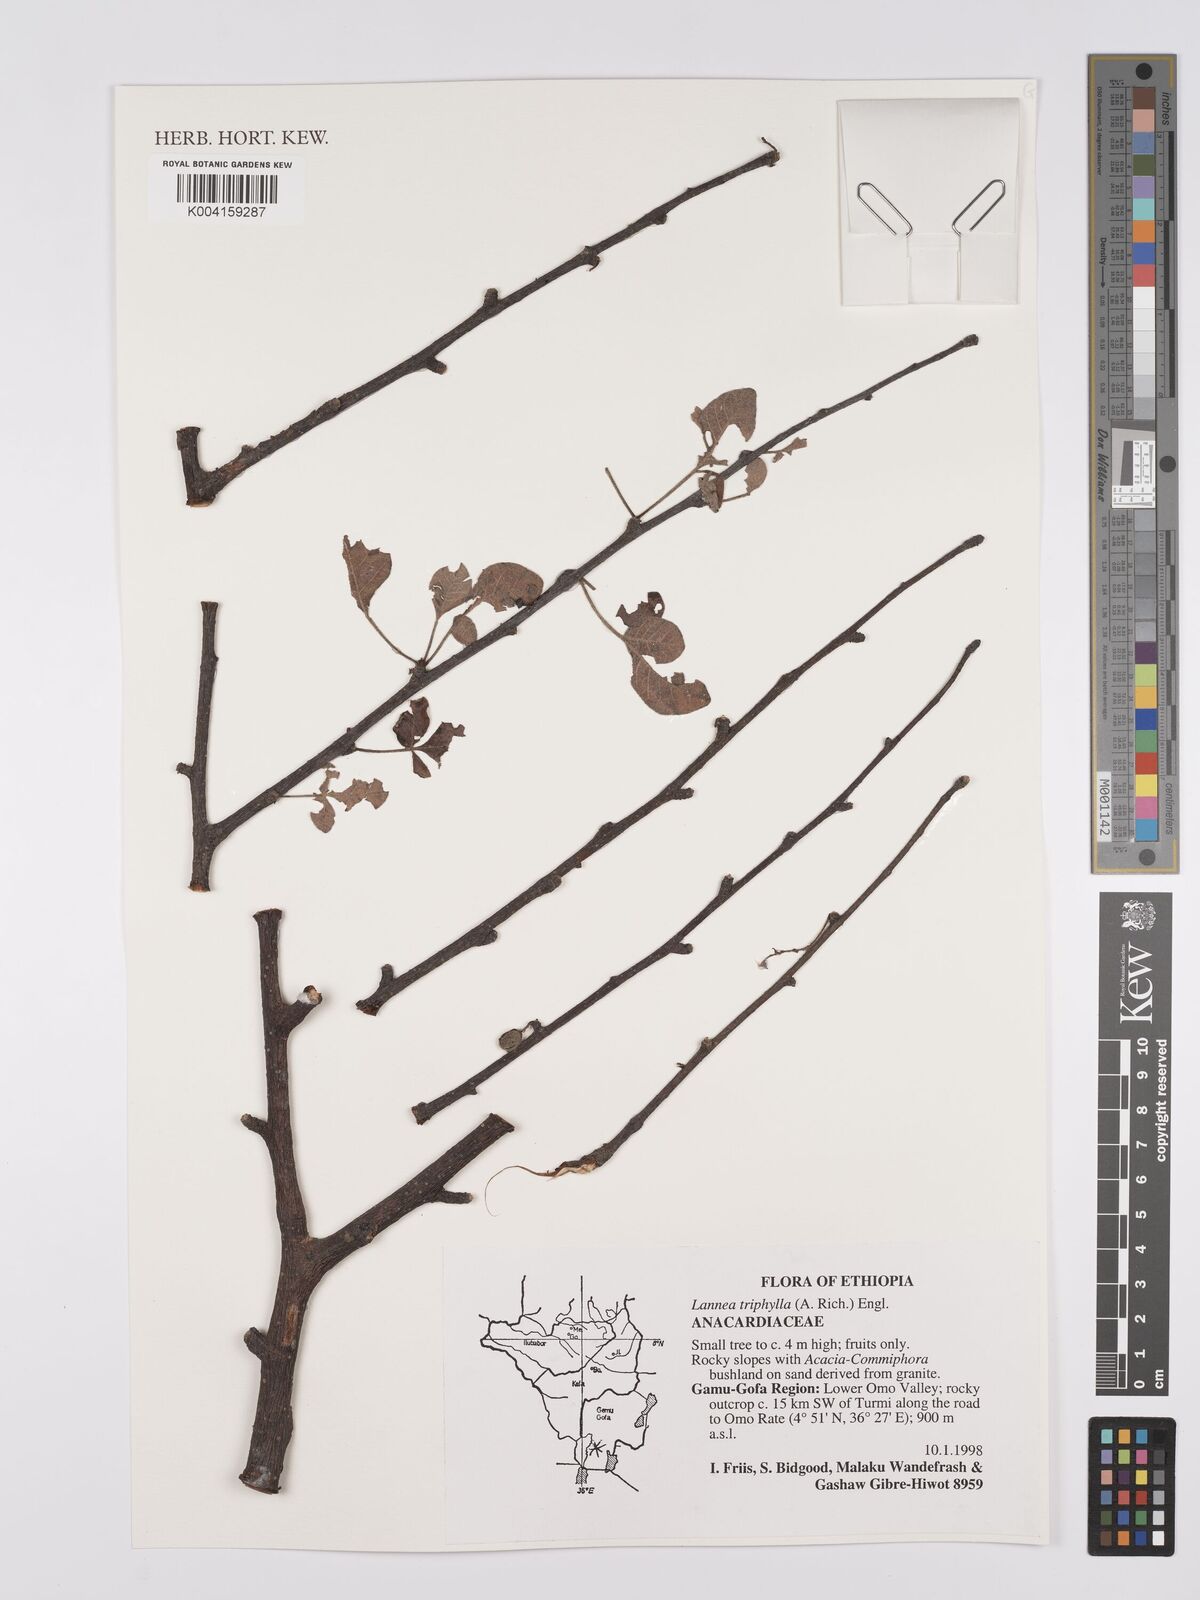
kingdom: Plantae
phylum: Tracheophyta
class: Magnoliopsida
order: Sapindales
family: Anacardiaceae
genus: Lannea
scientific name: Lannea triphylla
